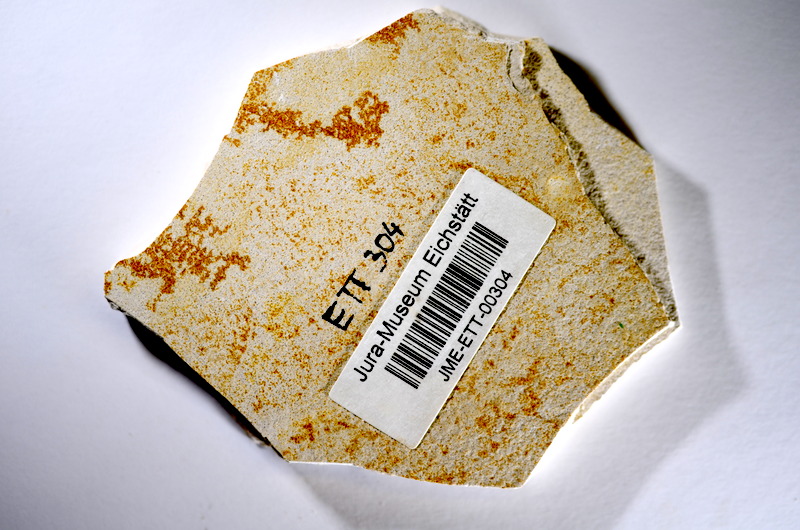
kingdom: Animalia
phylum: Chordata
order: Salmoniformes
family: Orthogonikleithridae
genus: Orthogonikleithrus
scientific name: Orthogonikleithrus hoelli
